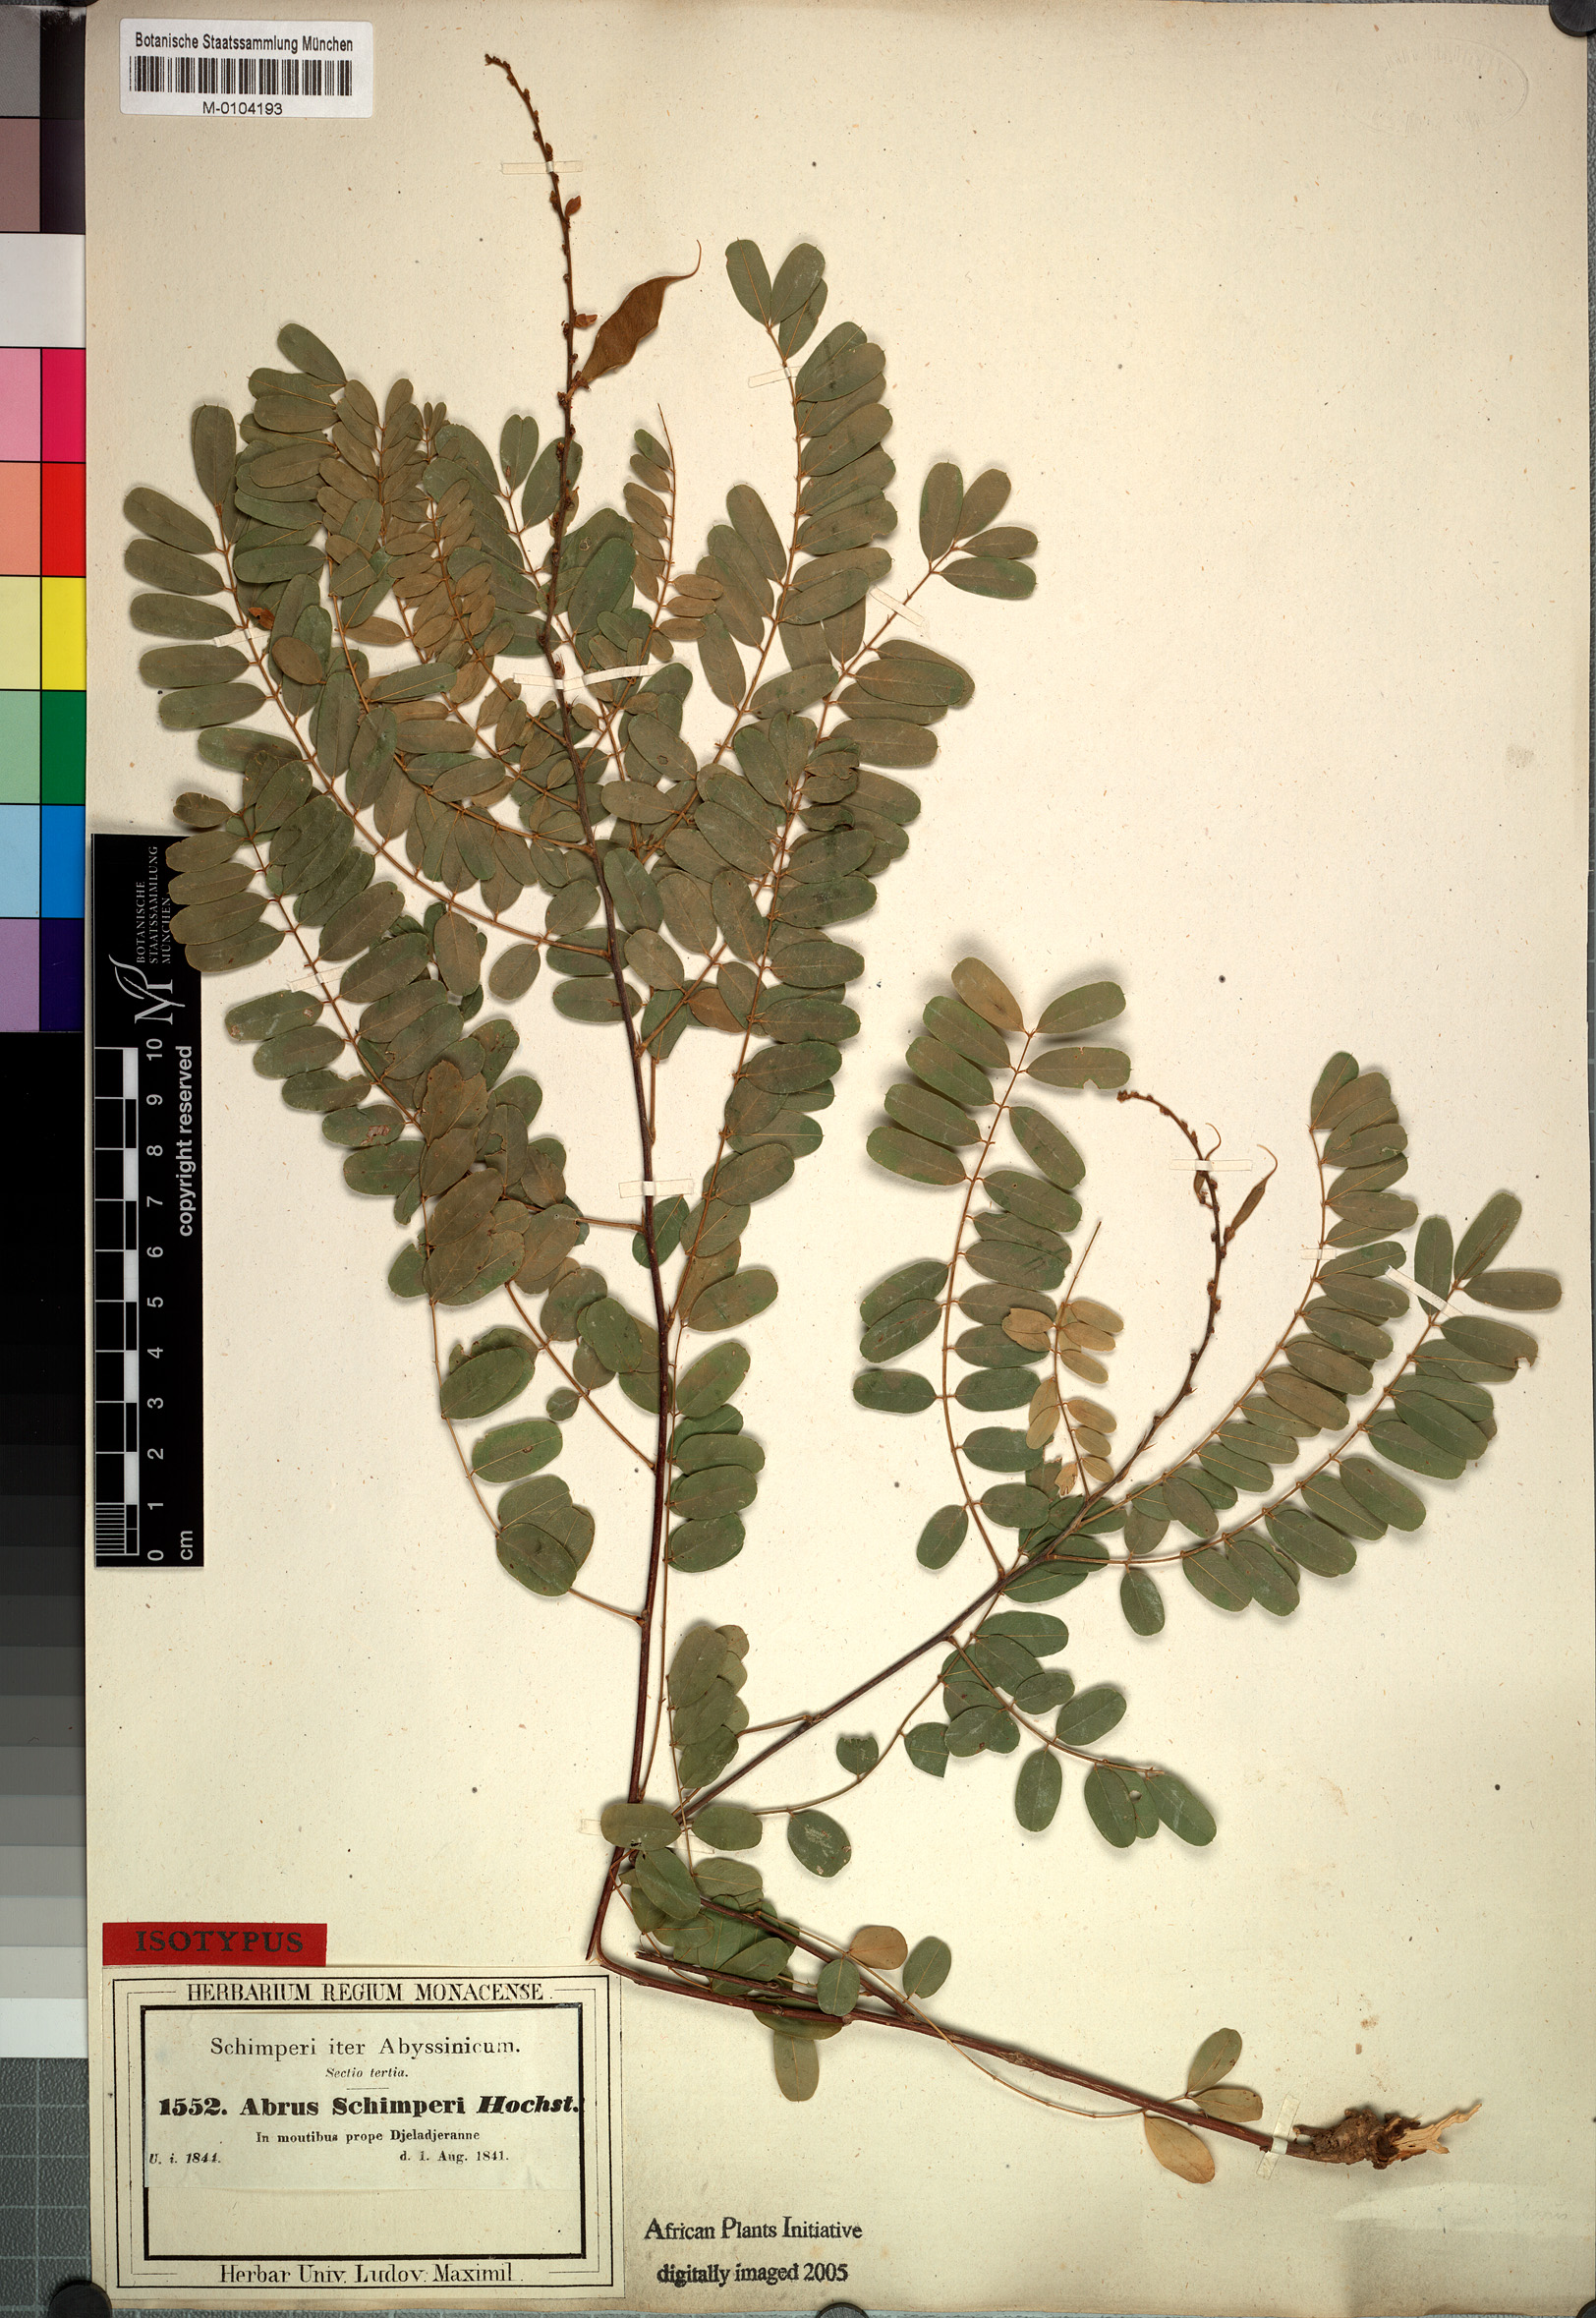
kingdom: Plantae
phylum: Tracheophyta
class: Magnoliopsida
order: Fabales
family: Fabaceae
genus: Abrus
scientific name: Abrus schimperi
